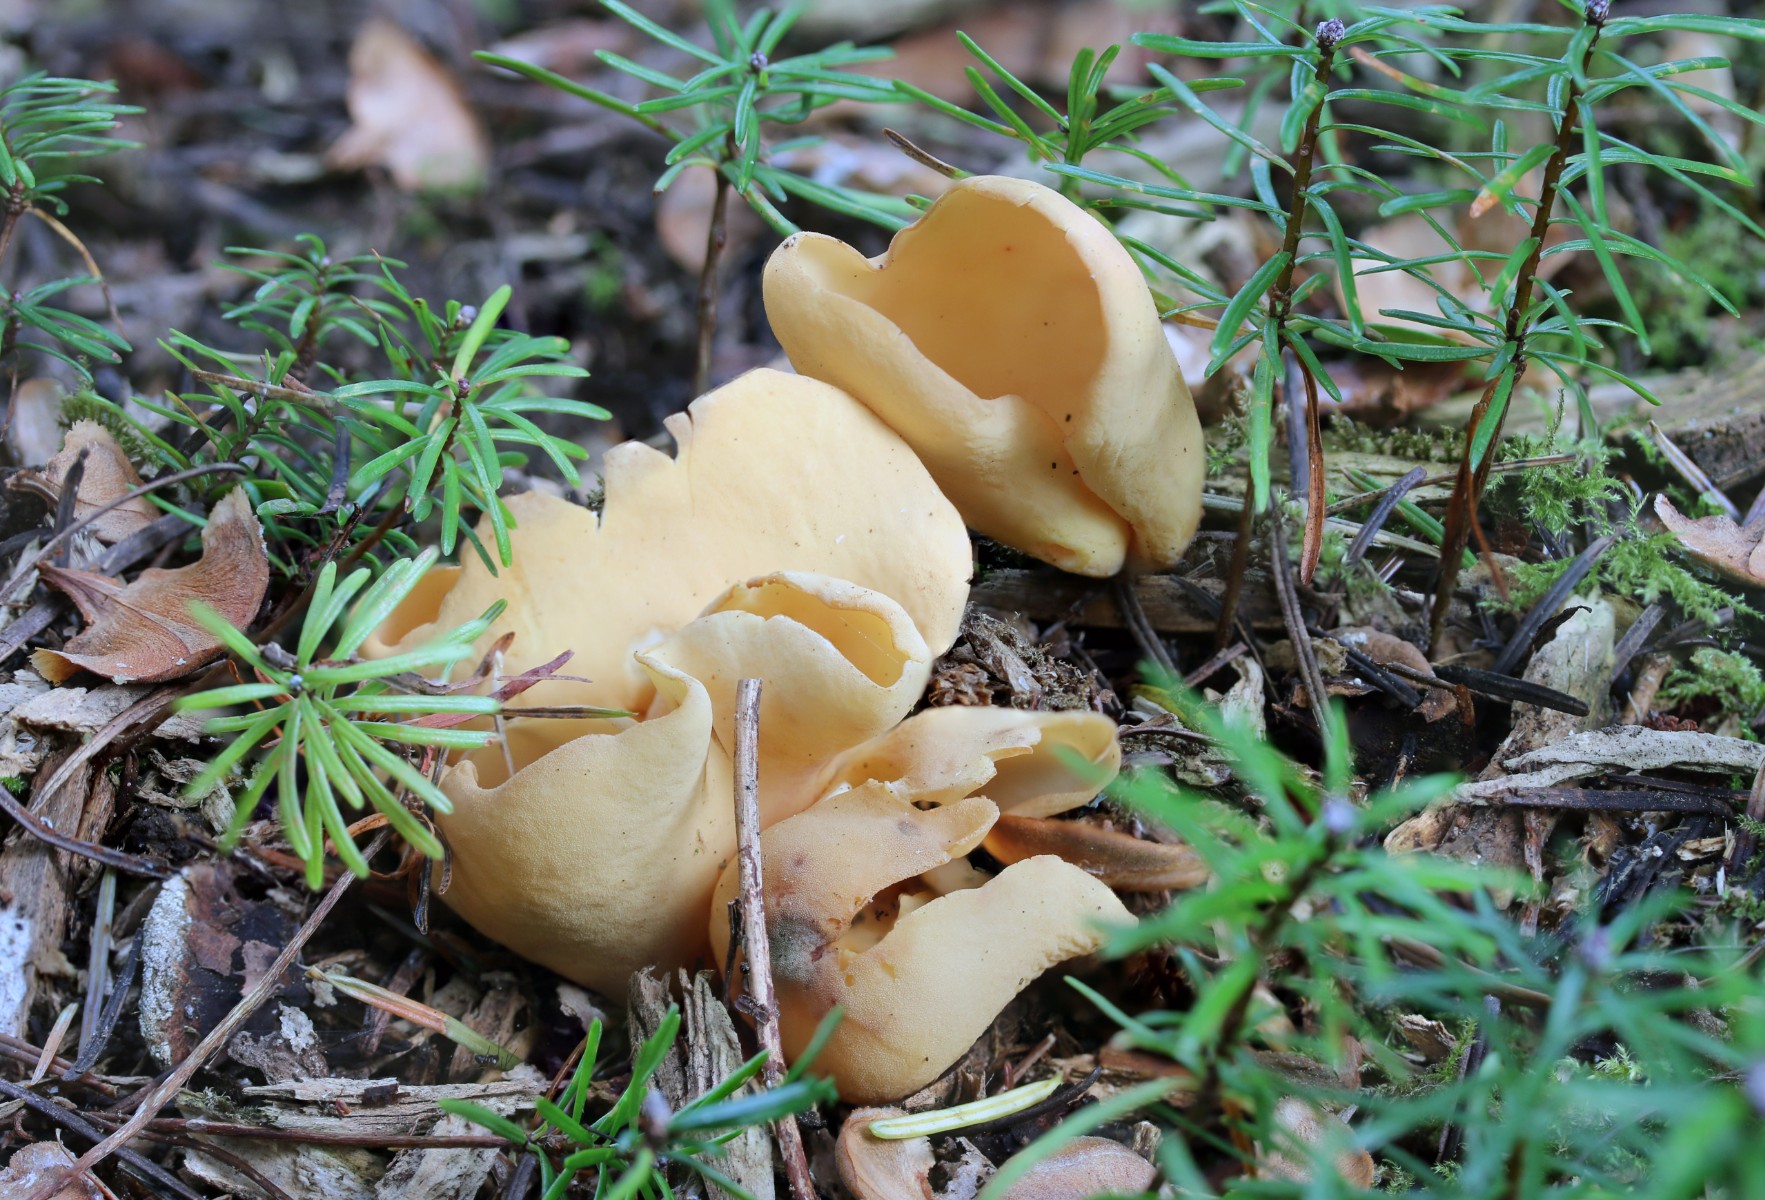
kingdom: Fungi
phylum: Ascomycota
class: Pezizomycetes
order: Pezizales
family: Otideaceae
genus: Otidea
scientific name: Otidea onotica
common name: æsel-ørebæger
